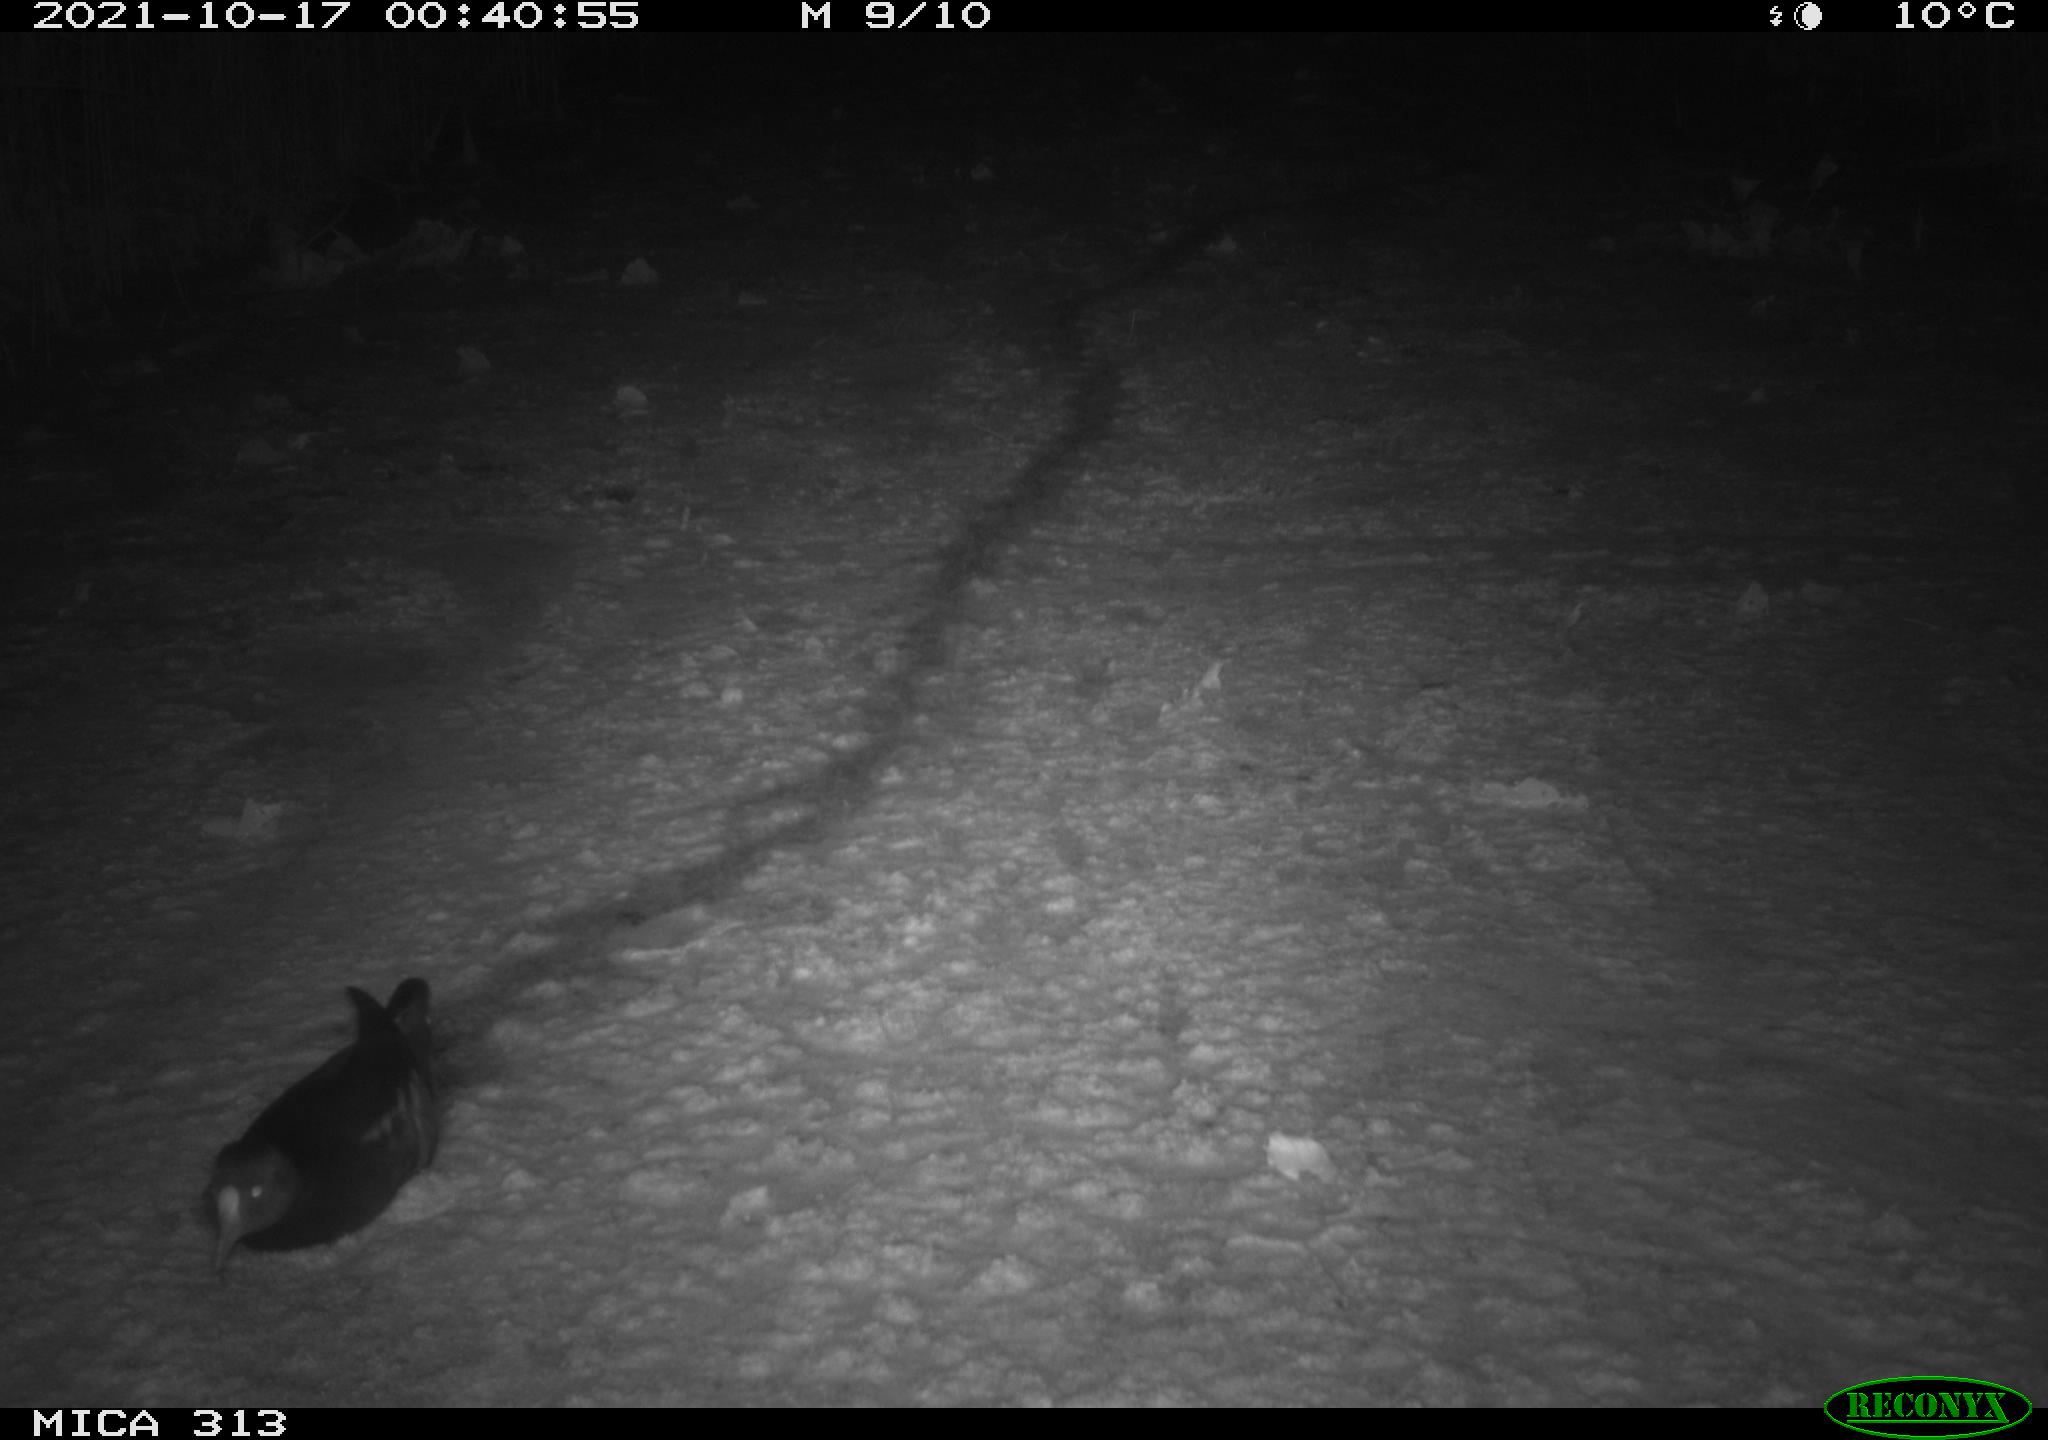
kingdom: Animalia
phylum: Chordata
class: Aves
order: Gruiformes
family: Rallidae
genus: Gallinula
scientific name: Gallinula chloropus
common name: Common moorhen
